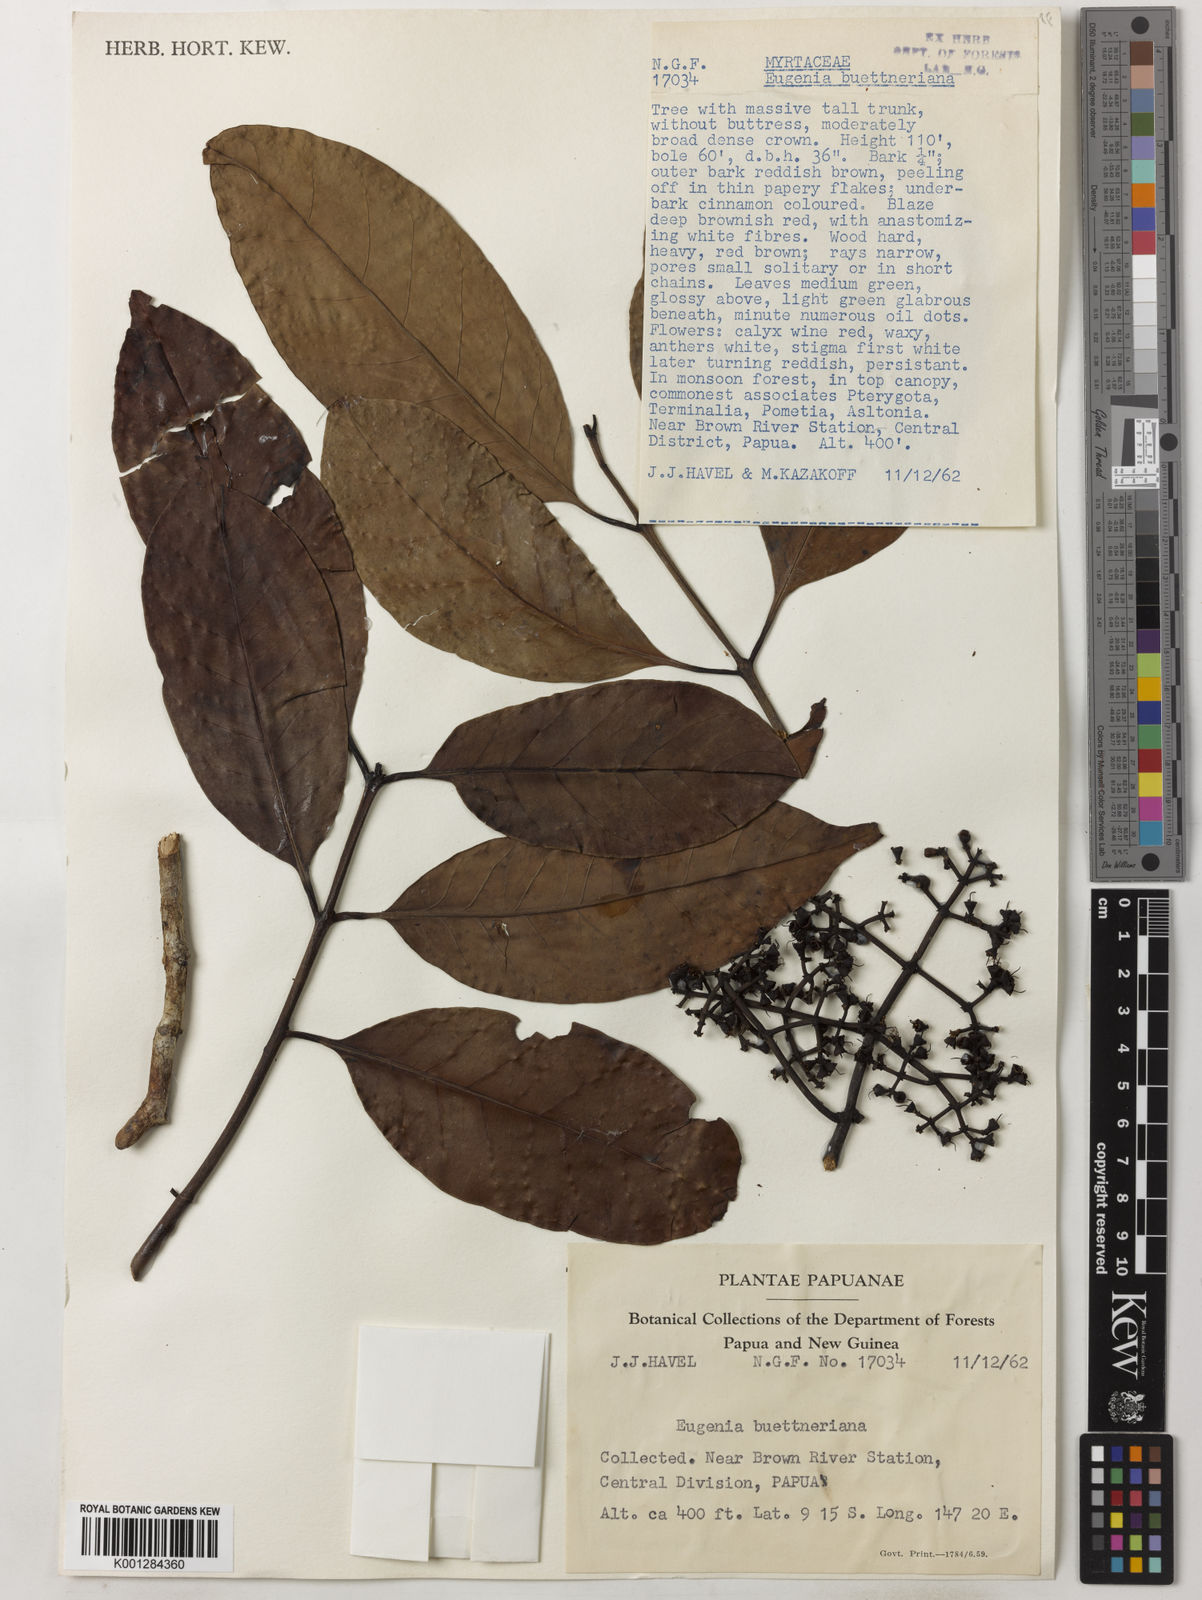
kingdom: Plantae
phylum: Tracheophyta
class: Magnoliopsida
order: Myrtales
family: Myrtaceae
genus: Syzygium
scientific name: Syzygium buettnerianum
